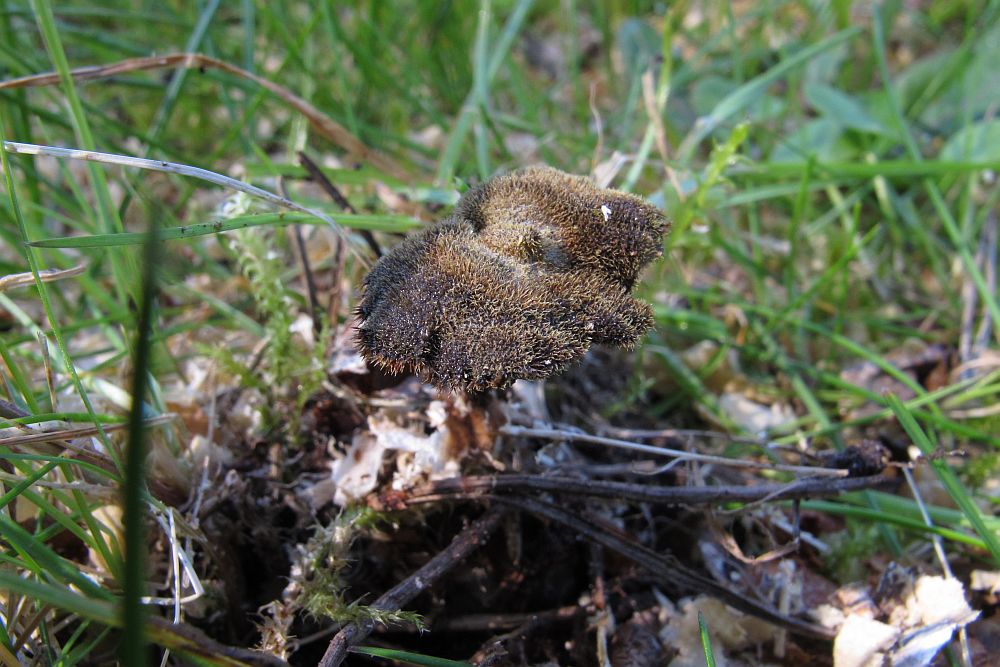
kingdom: Fungi
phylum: Basidiomycota
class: Agaricomycetes
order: Russulales
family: Auriscalpiaceae
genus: Auriscalpium
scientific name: Auriscalpium vulgare
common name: koglepigsvamp
